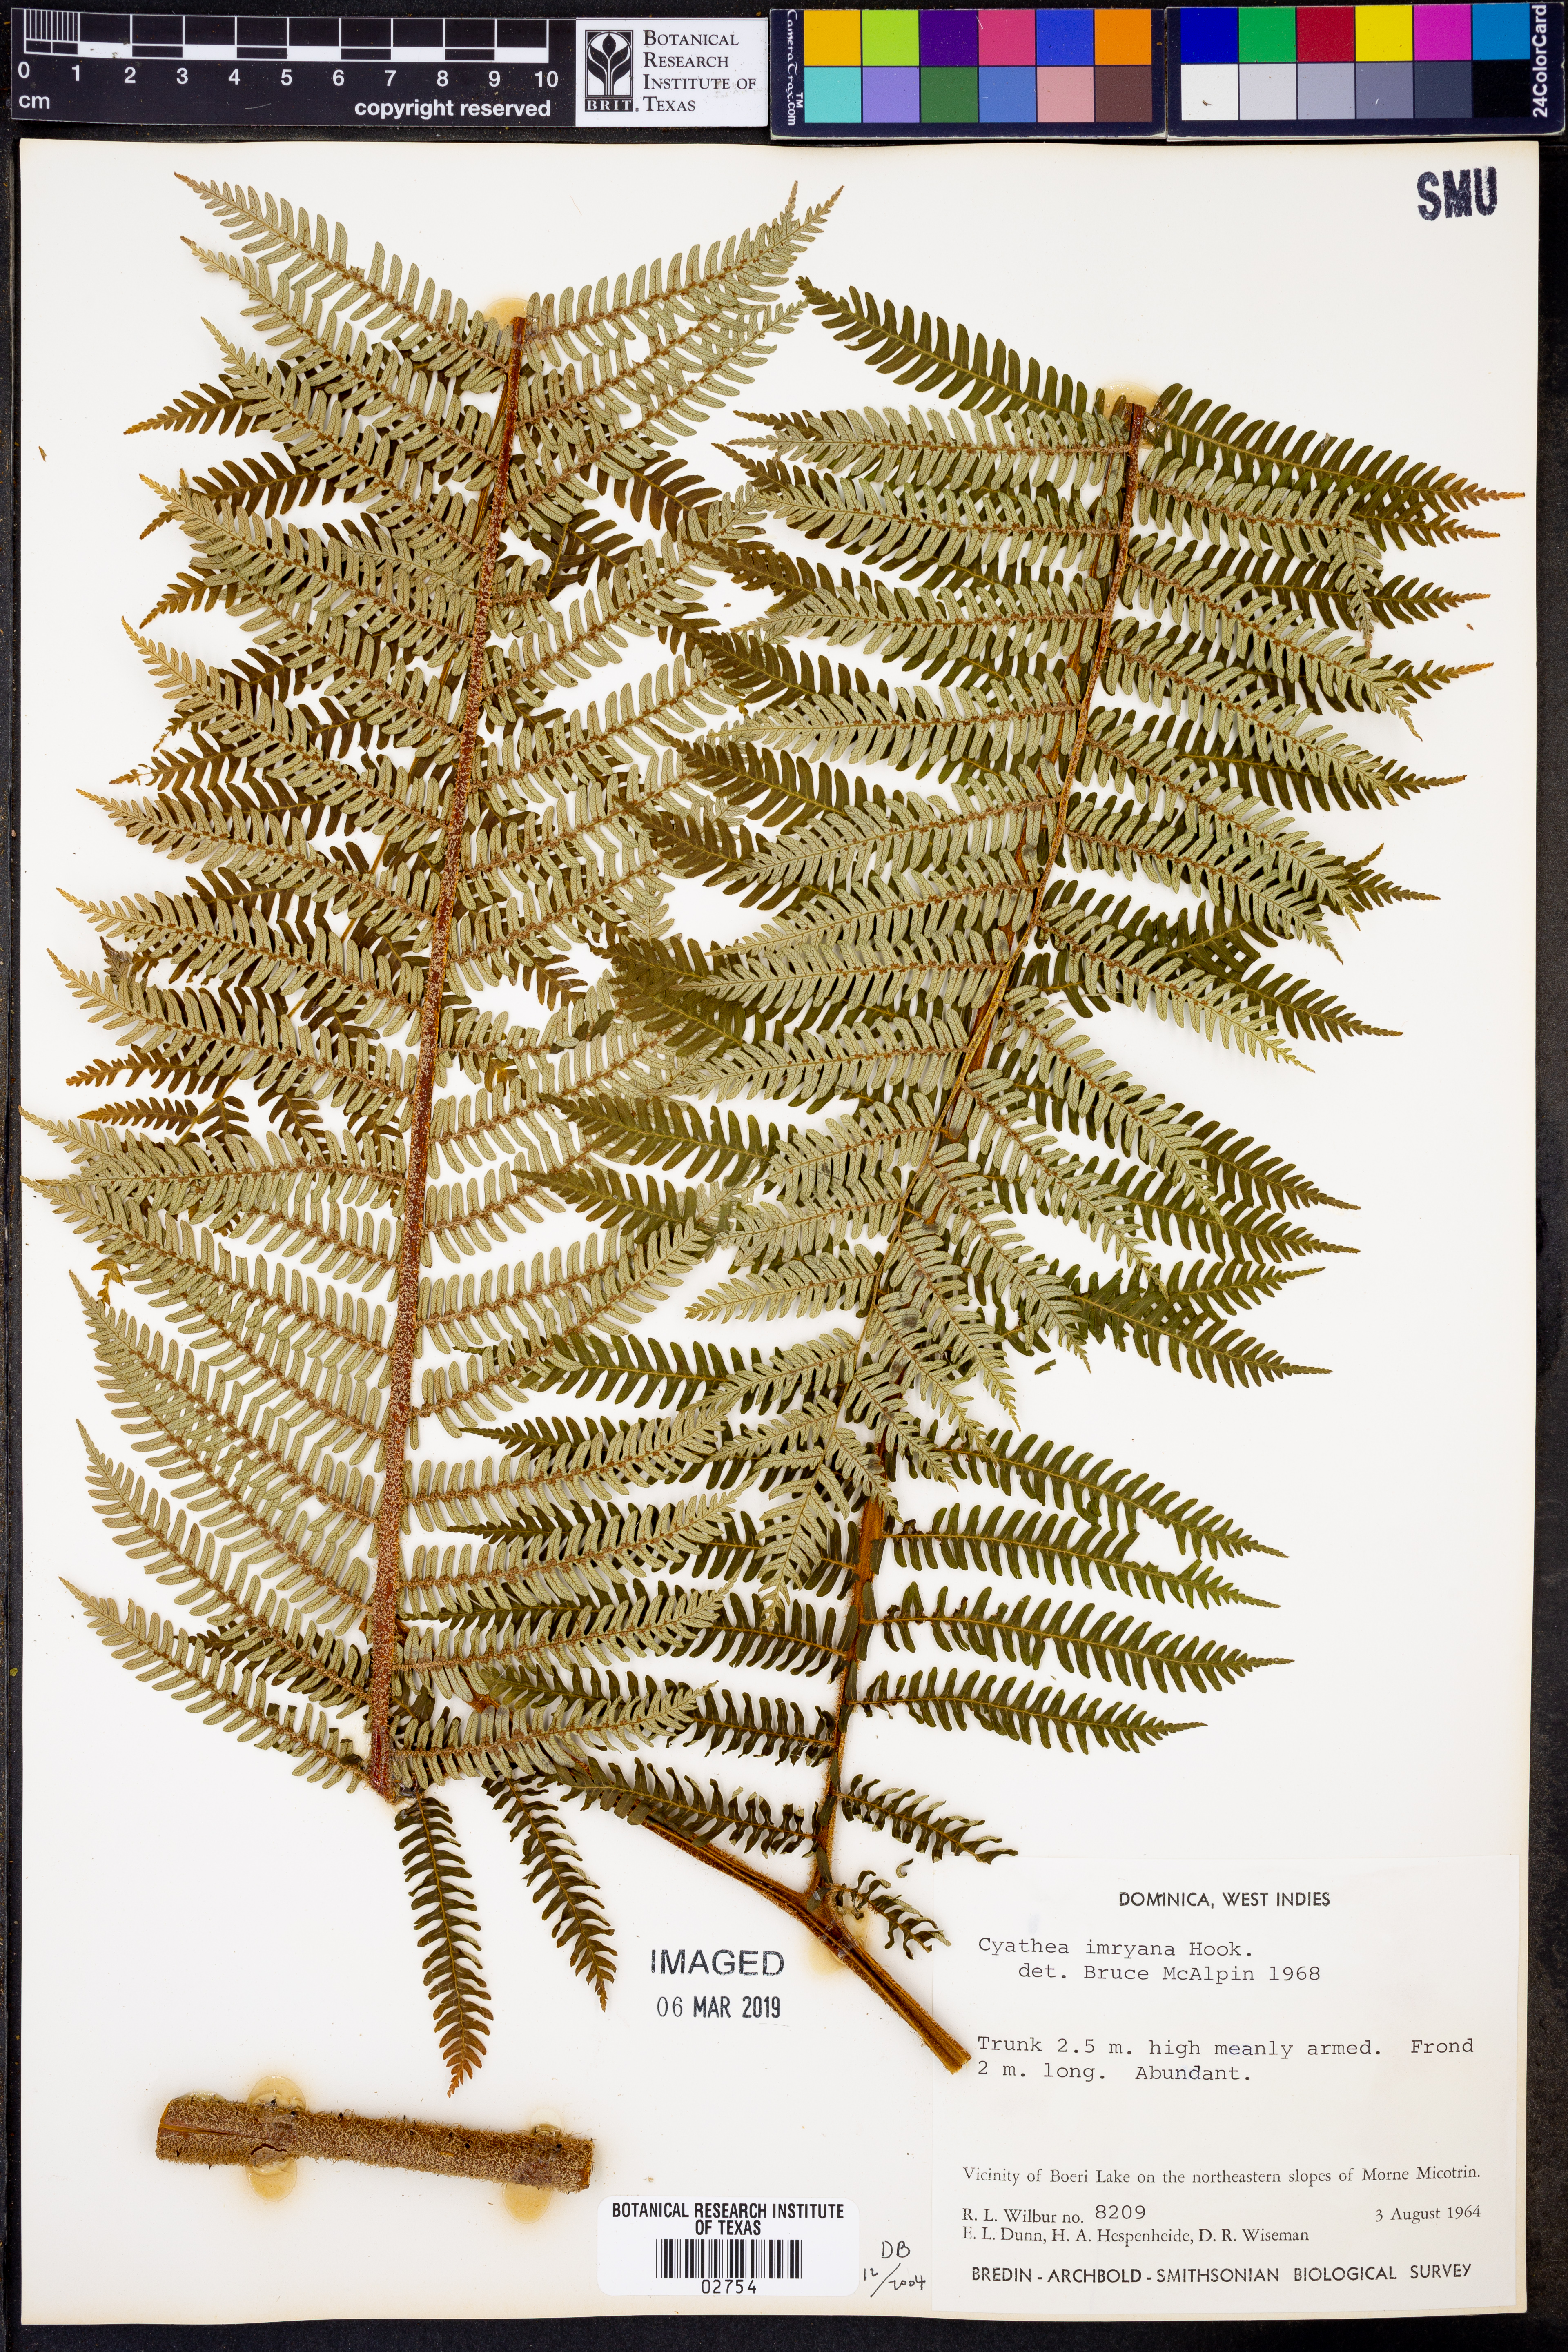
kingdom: Plantae
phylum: Tracheophyta
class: Polypodiopsida
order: Cyatheales
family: Cyatheaceae
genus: Cyathea
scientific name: Cyathea imrayana
